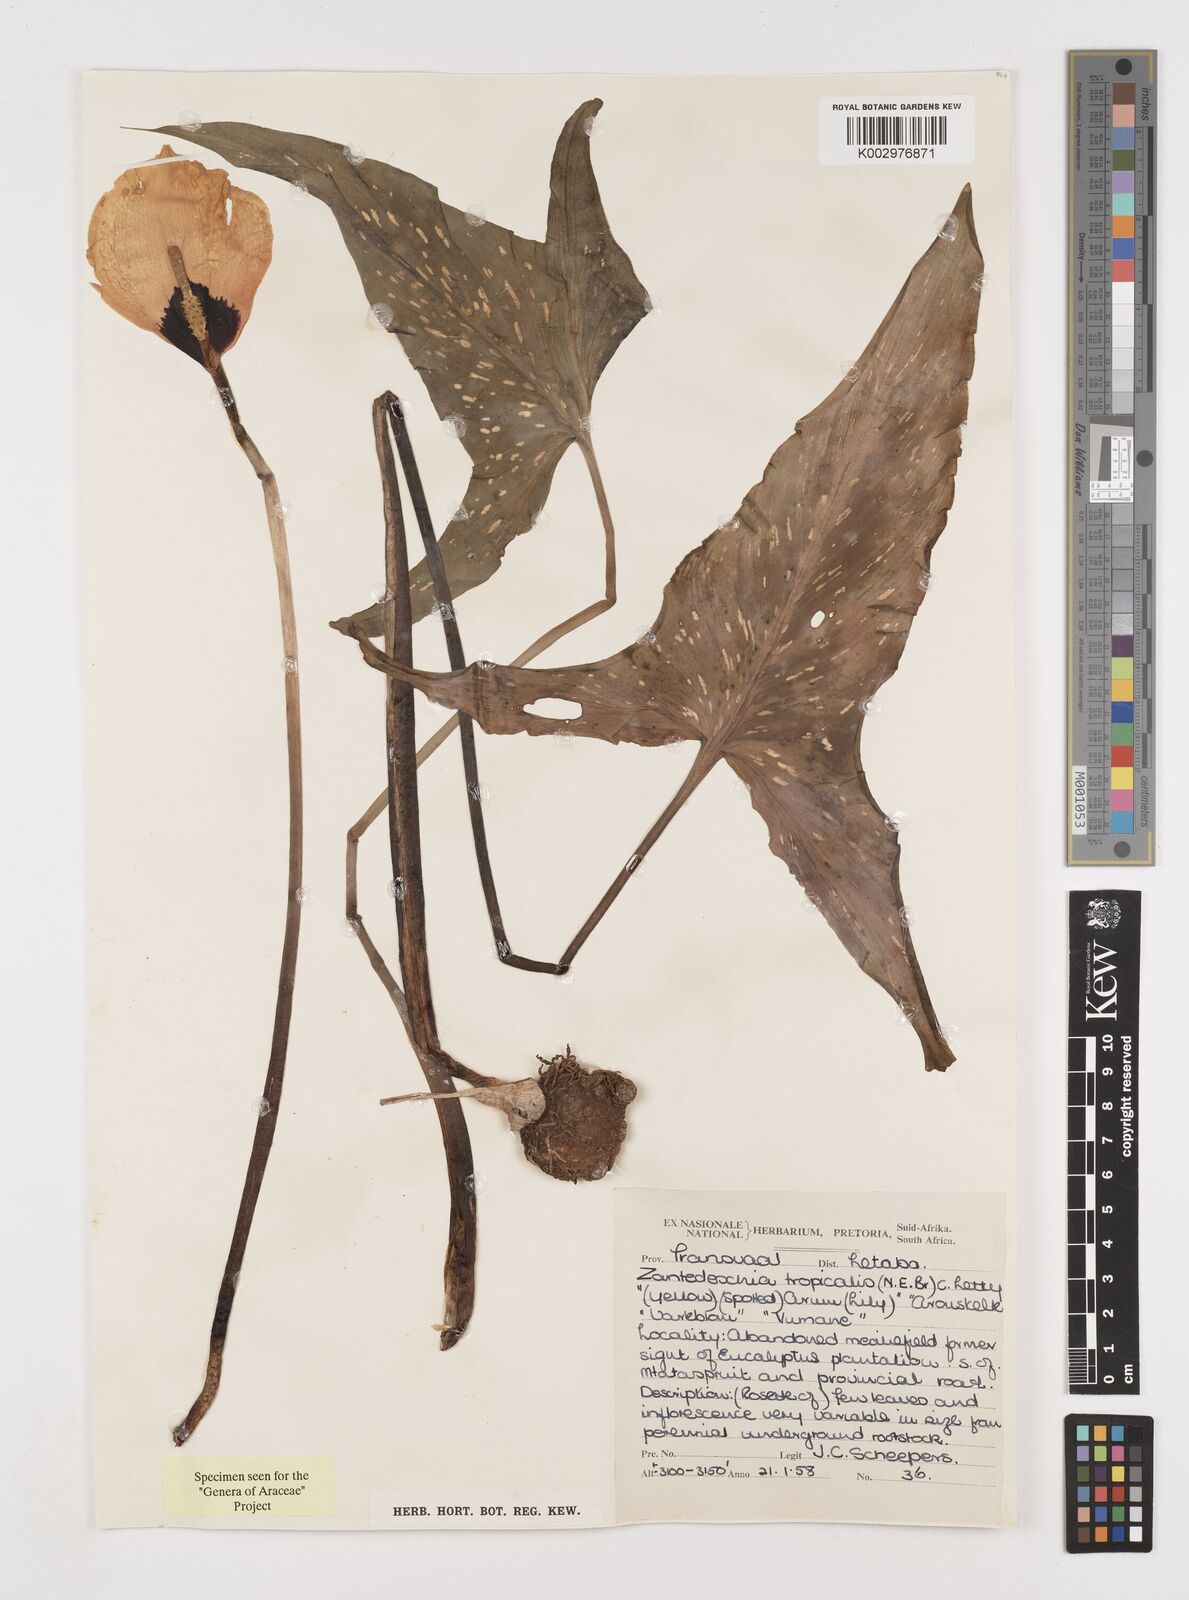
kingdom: Plantae
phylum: Tracheophyta
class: Liliopsida
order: Alismatales
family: Araceae
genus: Zantedeschia
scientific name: Zantedeschia albomaculata
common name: Spotted calla lily
